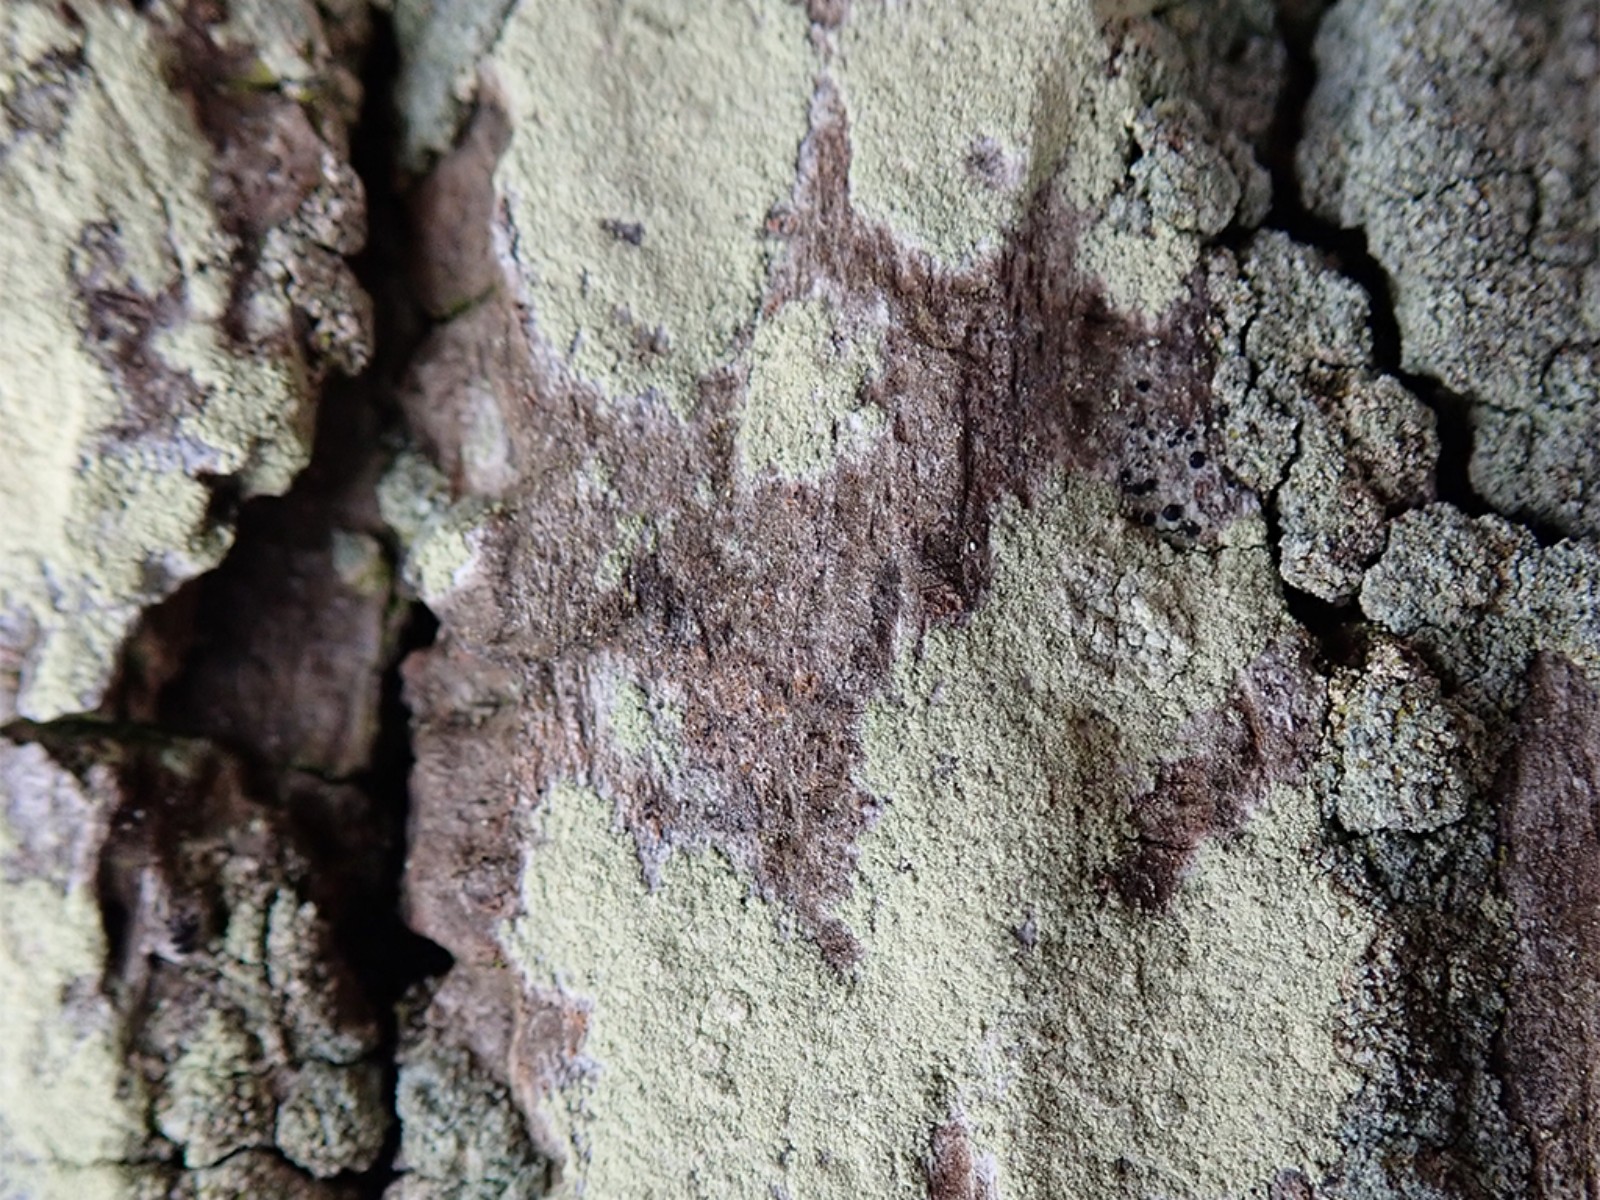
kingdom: Fungi
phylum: Ascomycota
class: Lecanoromycetes
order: Lecanorales
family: Lecanoraceae
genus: Lecanora
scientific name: Lecanora expallens
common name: bleggul kantskivelav
